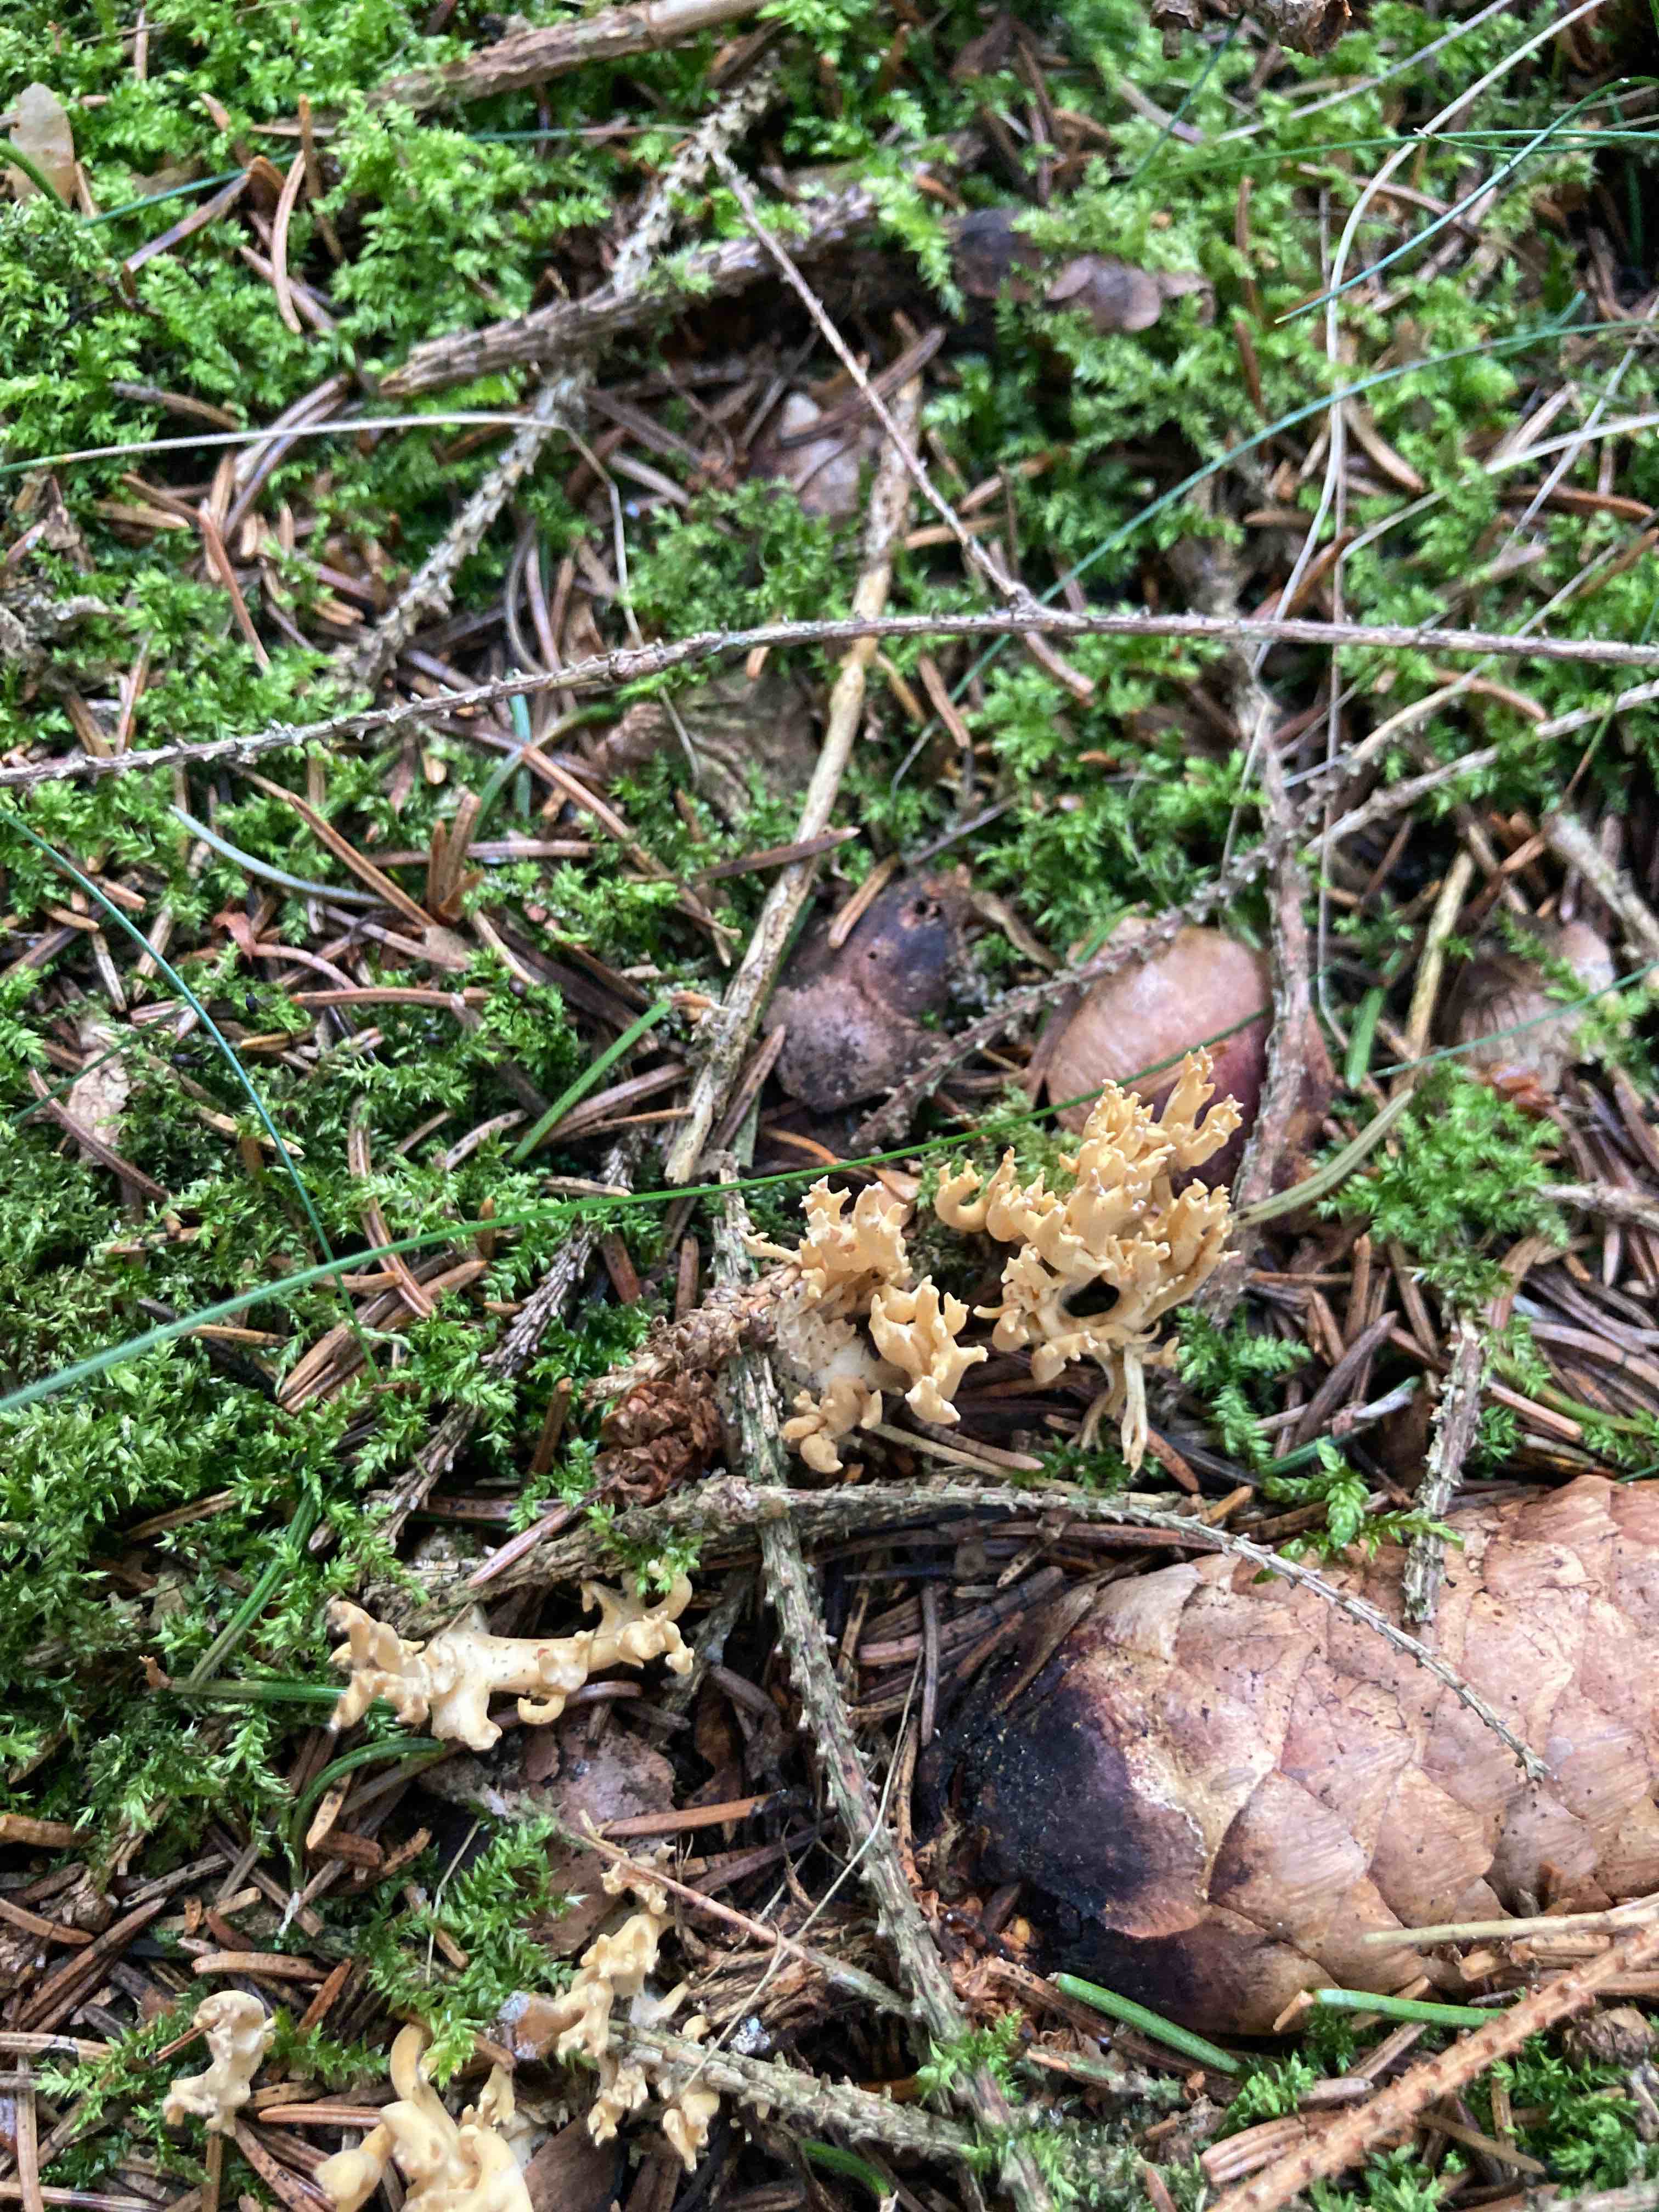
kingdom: Fungi
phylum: Basidiomycota
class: Agaricomycetes
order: Gomphales
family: Gomphaceae
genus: Phaeoclavulina
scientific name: Phaeoclavulina
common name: koralsvamp
